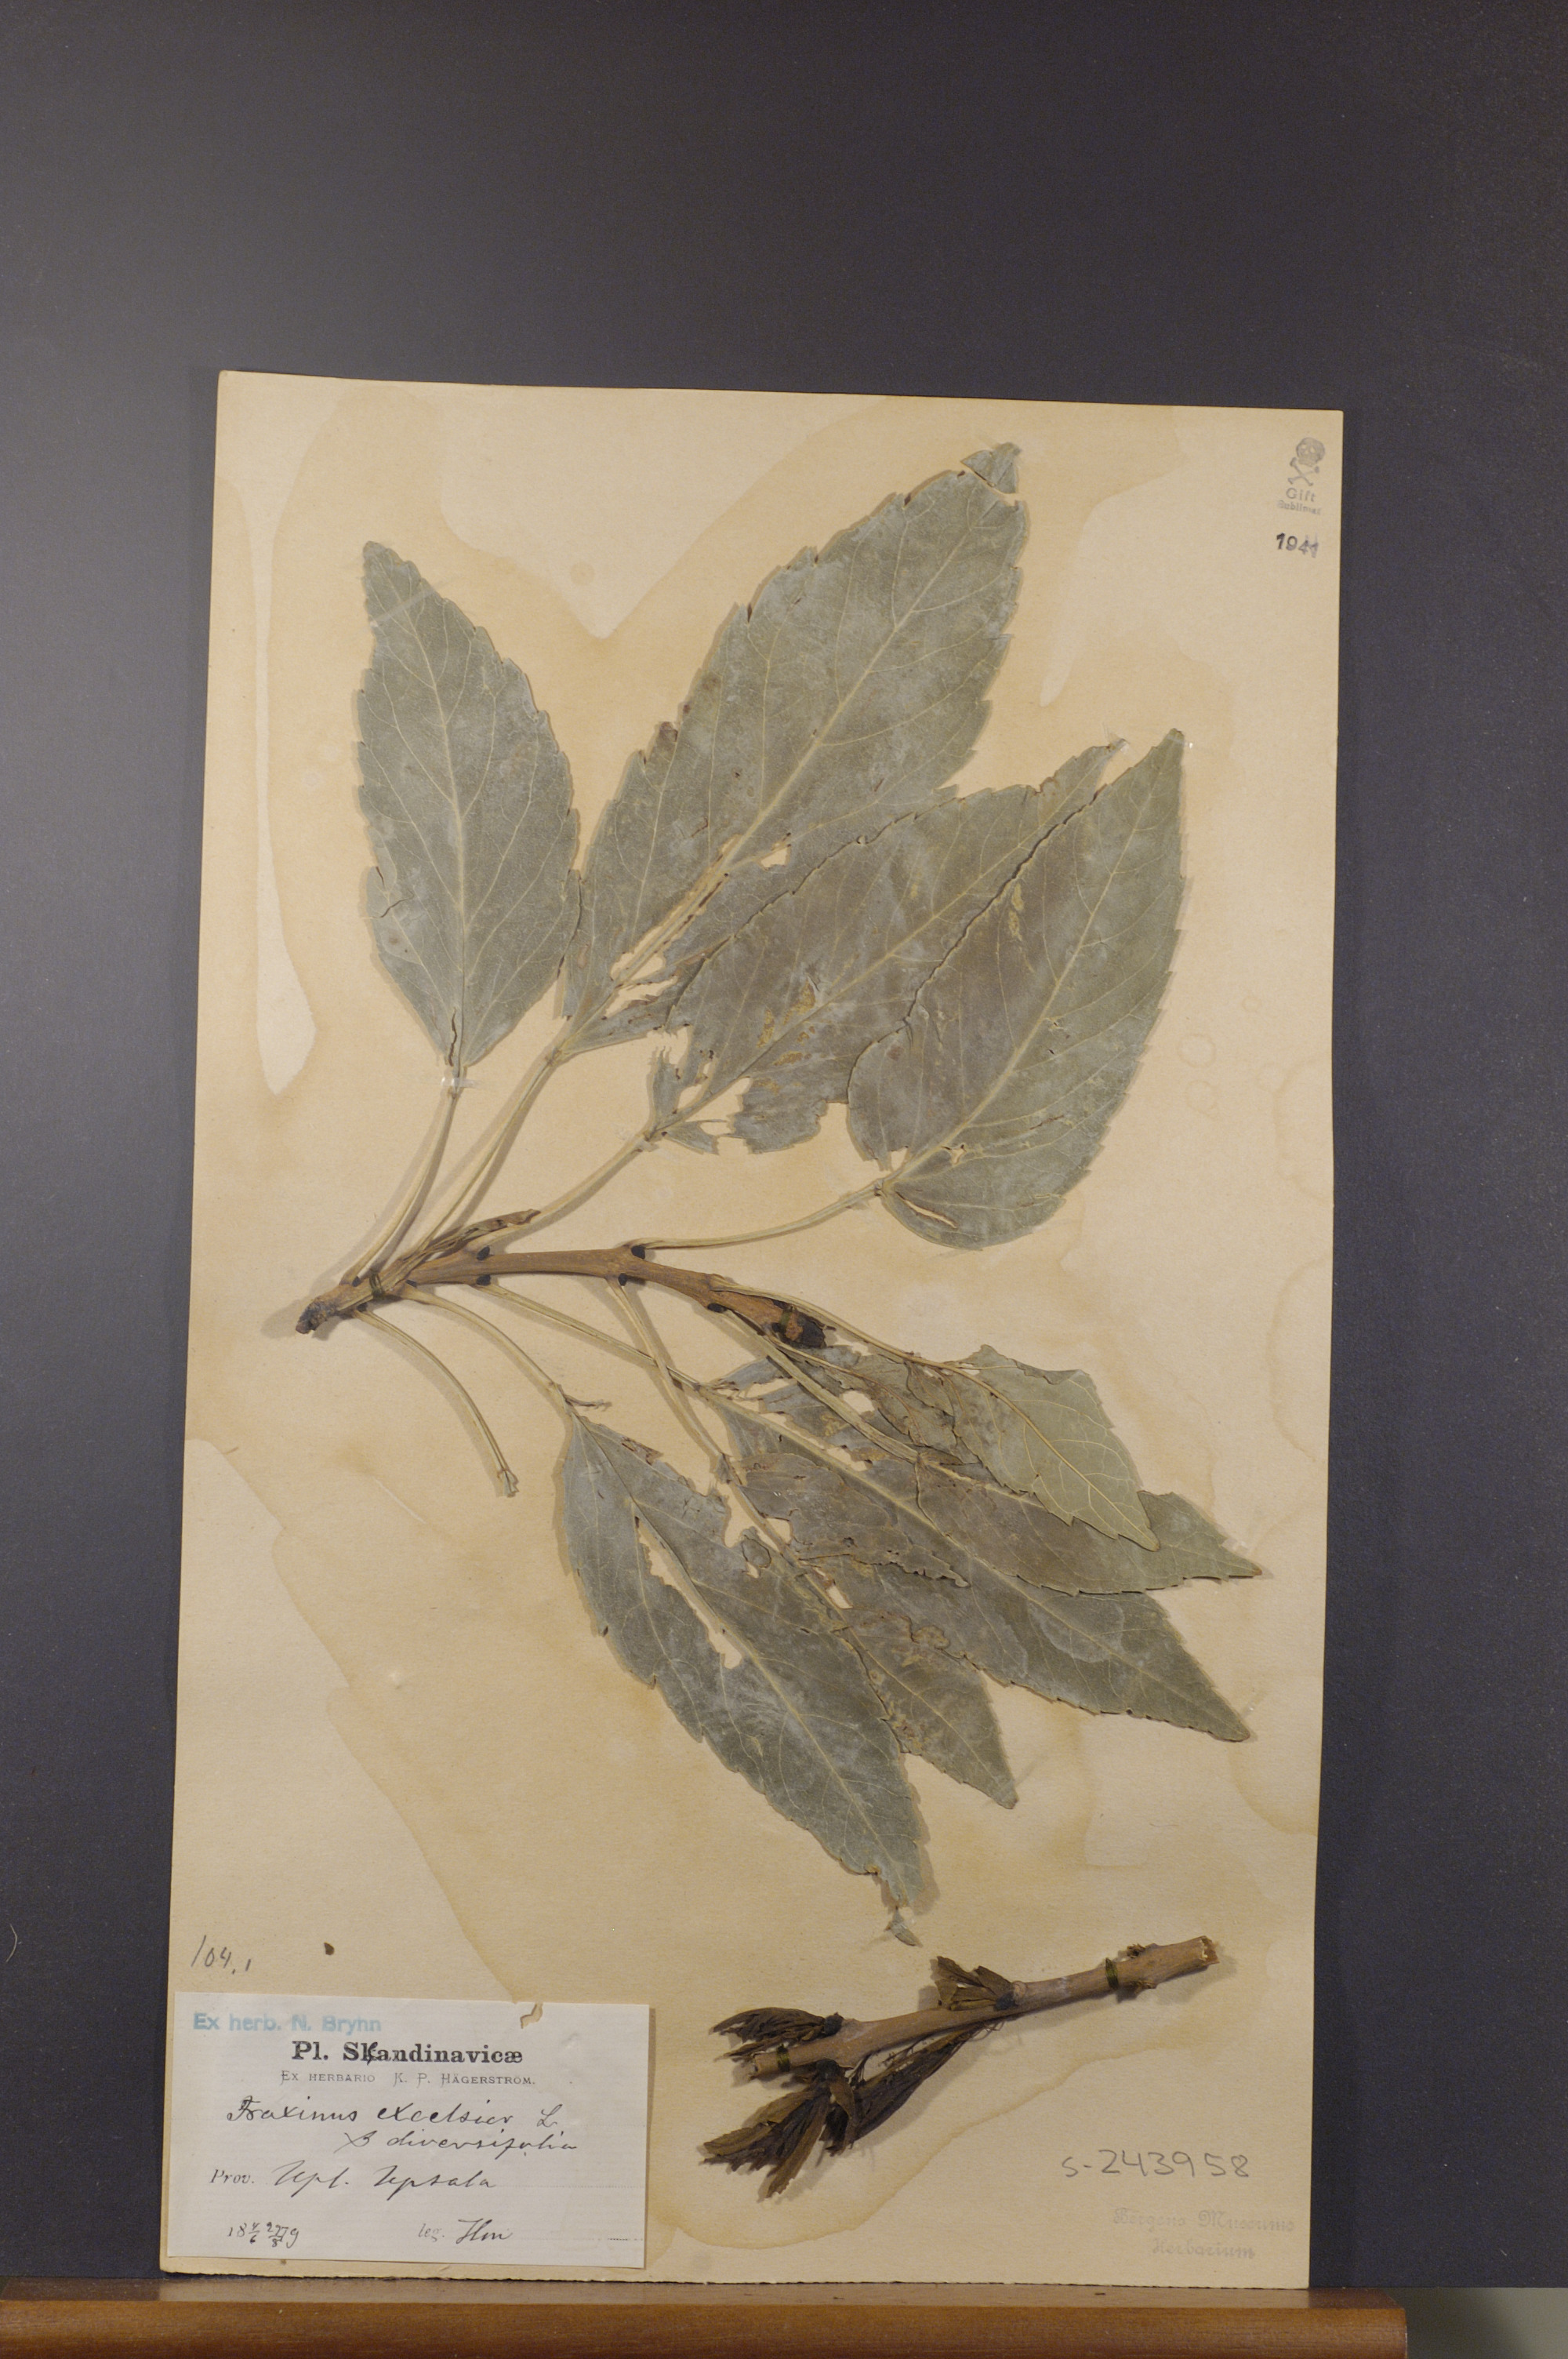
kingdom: Plantae
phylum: Tracheophyta
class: Magnoliopsida
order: Lamiales
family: Oleaceae
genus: Fraxinus
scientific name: Fraxinus excelsior
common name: European ash
